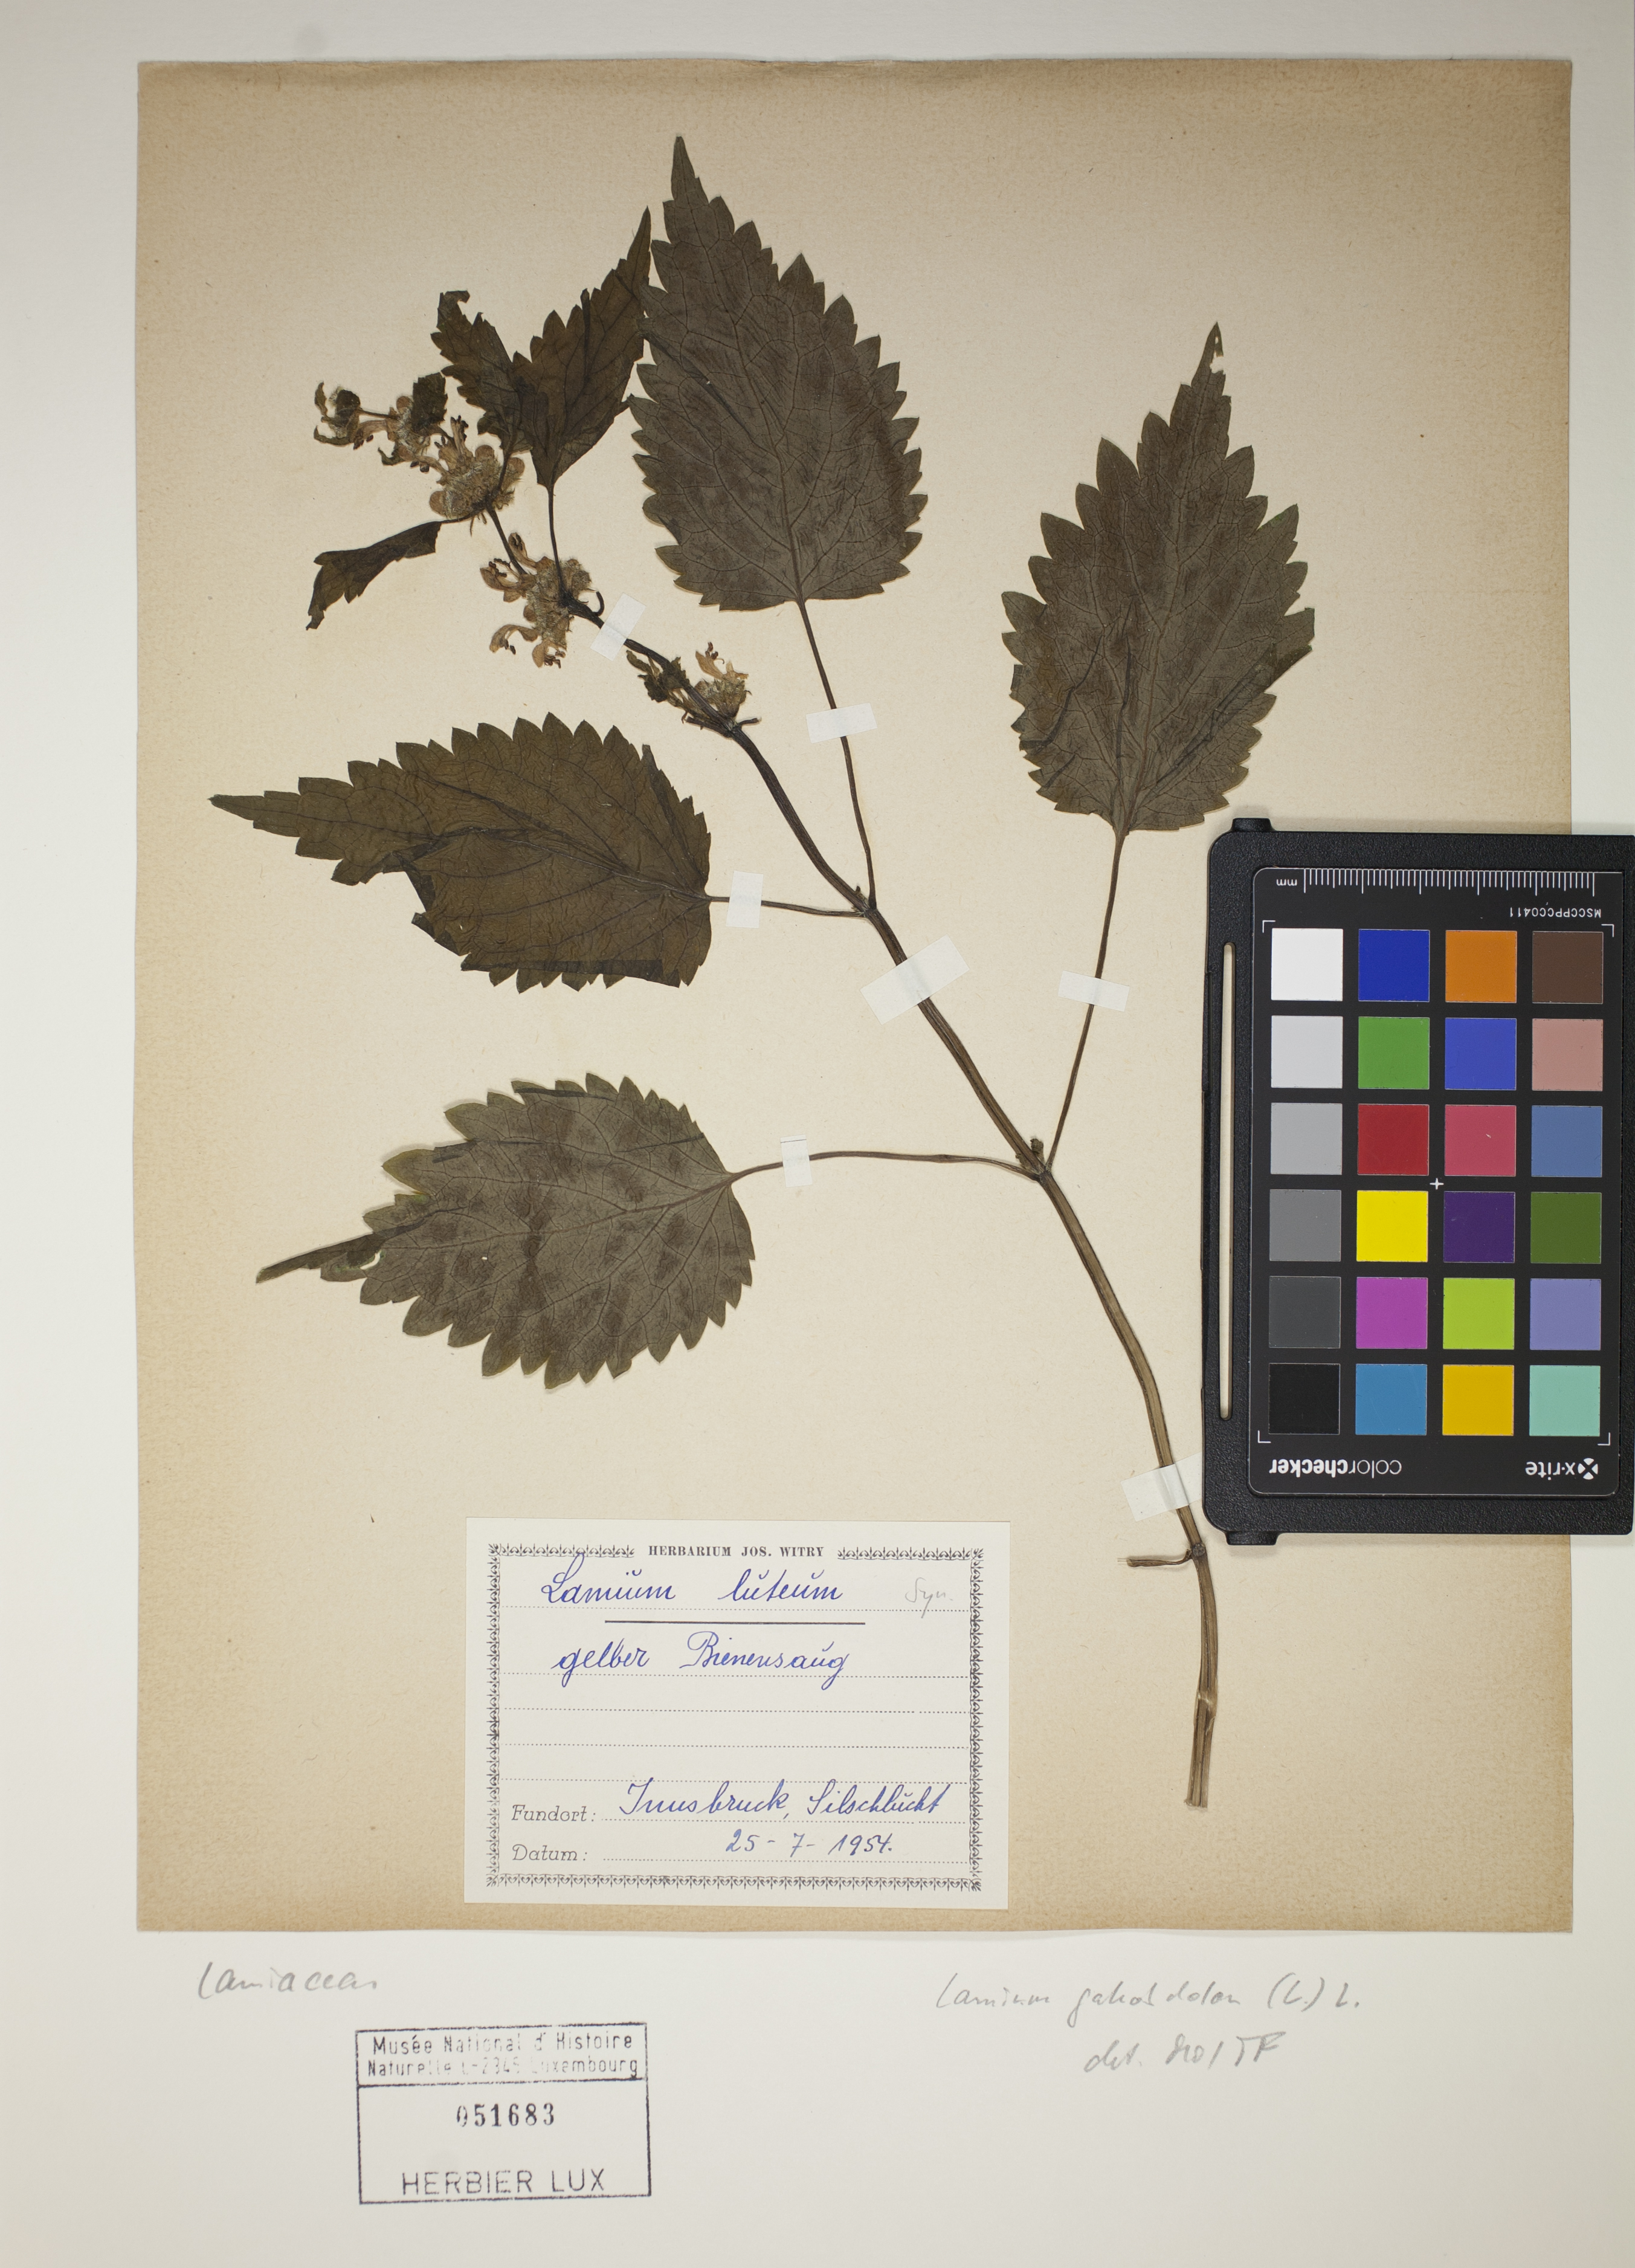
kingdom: Plantae
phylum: Tracheophyta
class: Magnoliopsida
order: Lamiales
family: Lamiaceae
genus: Lamium
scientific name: Lamium galeobdolon
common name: Yellow archangel
